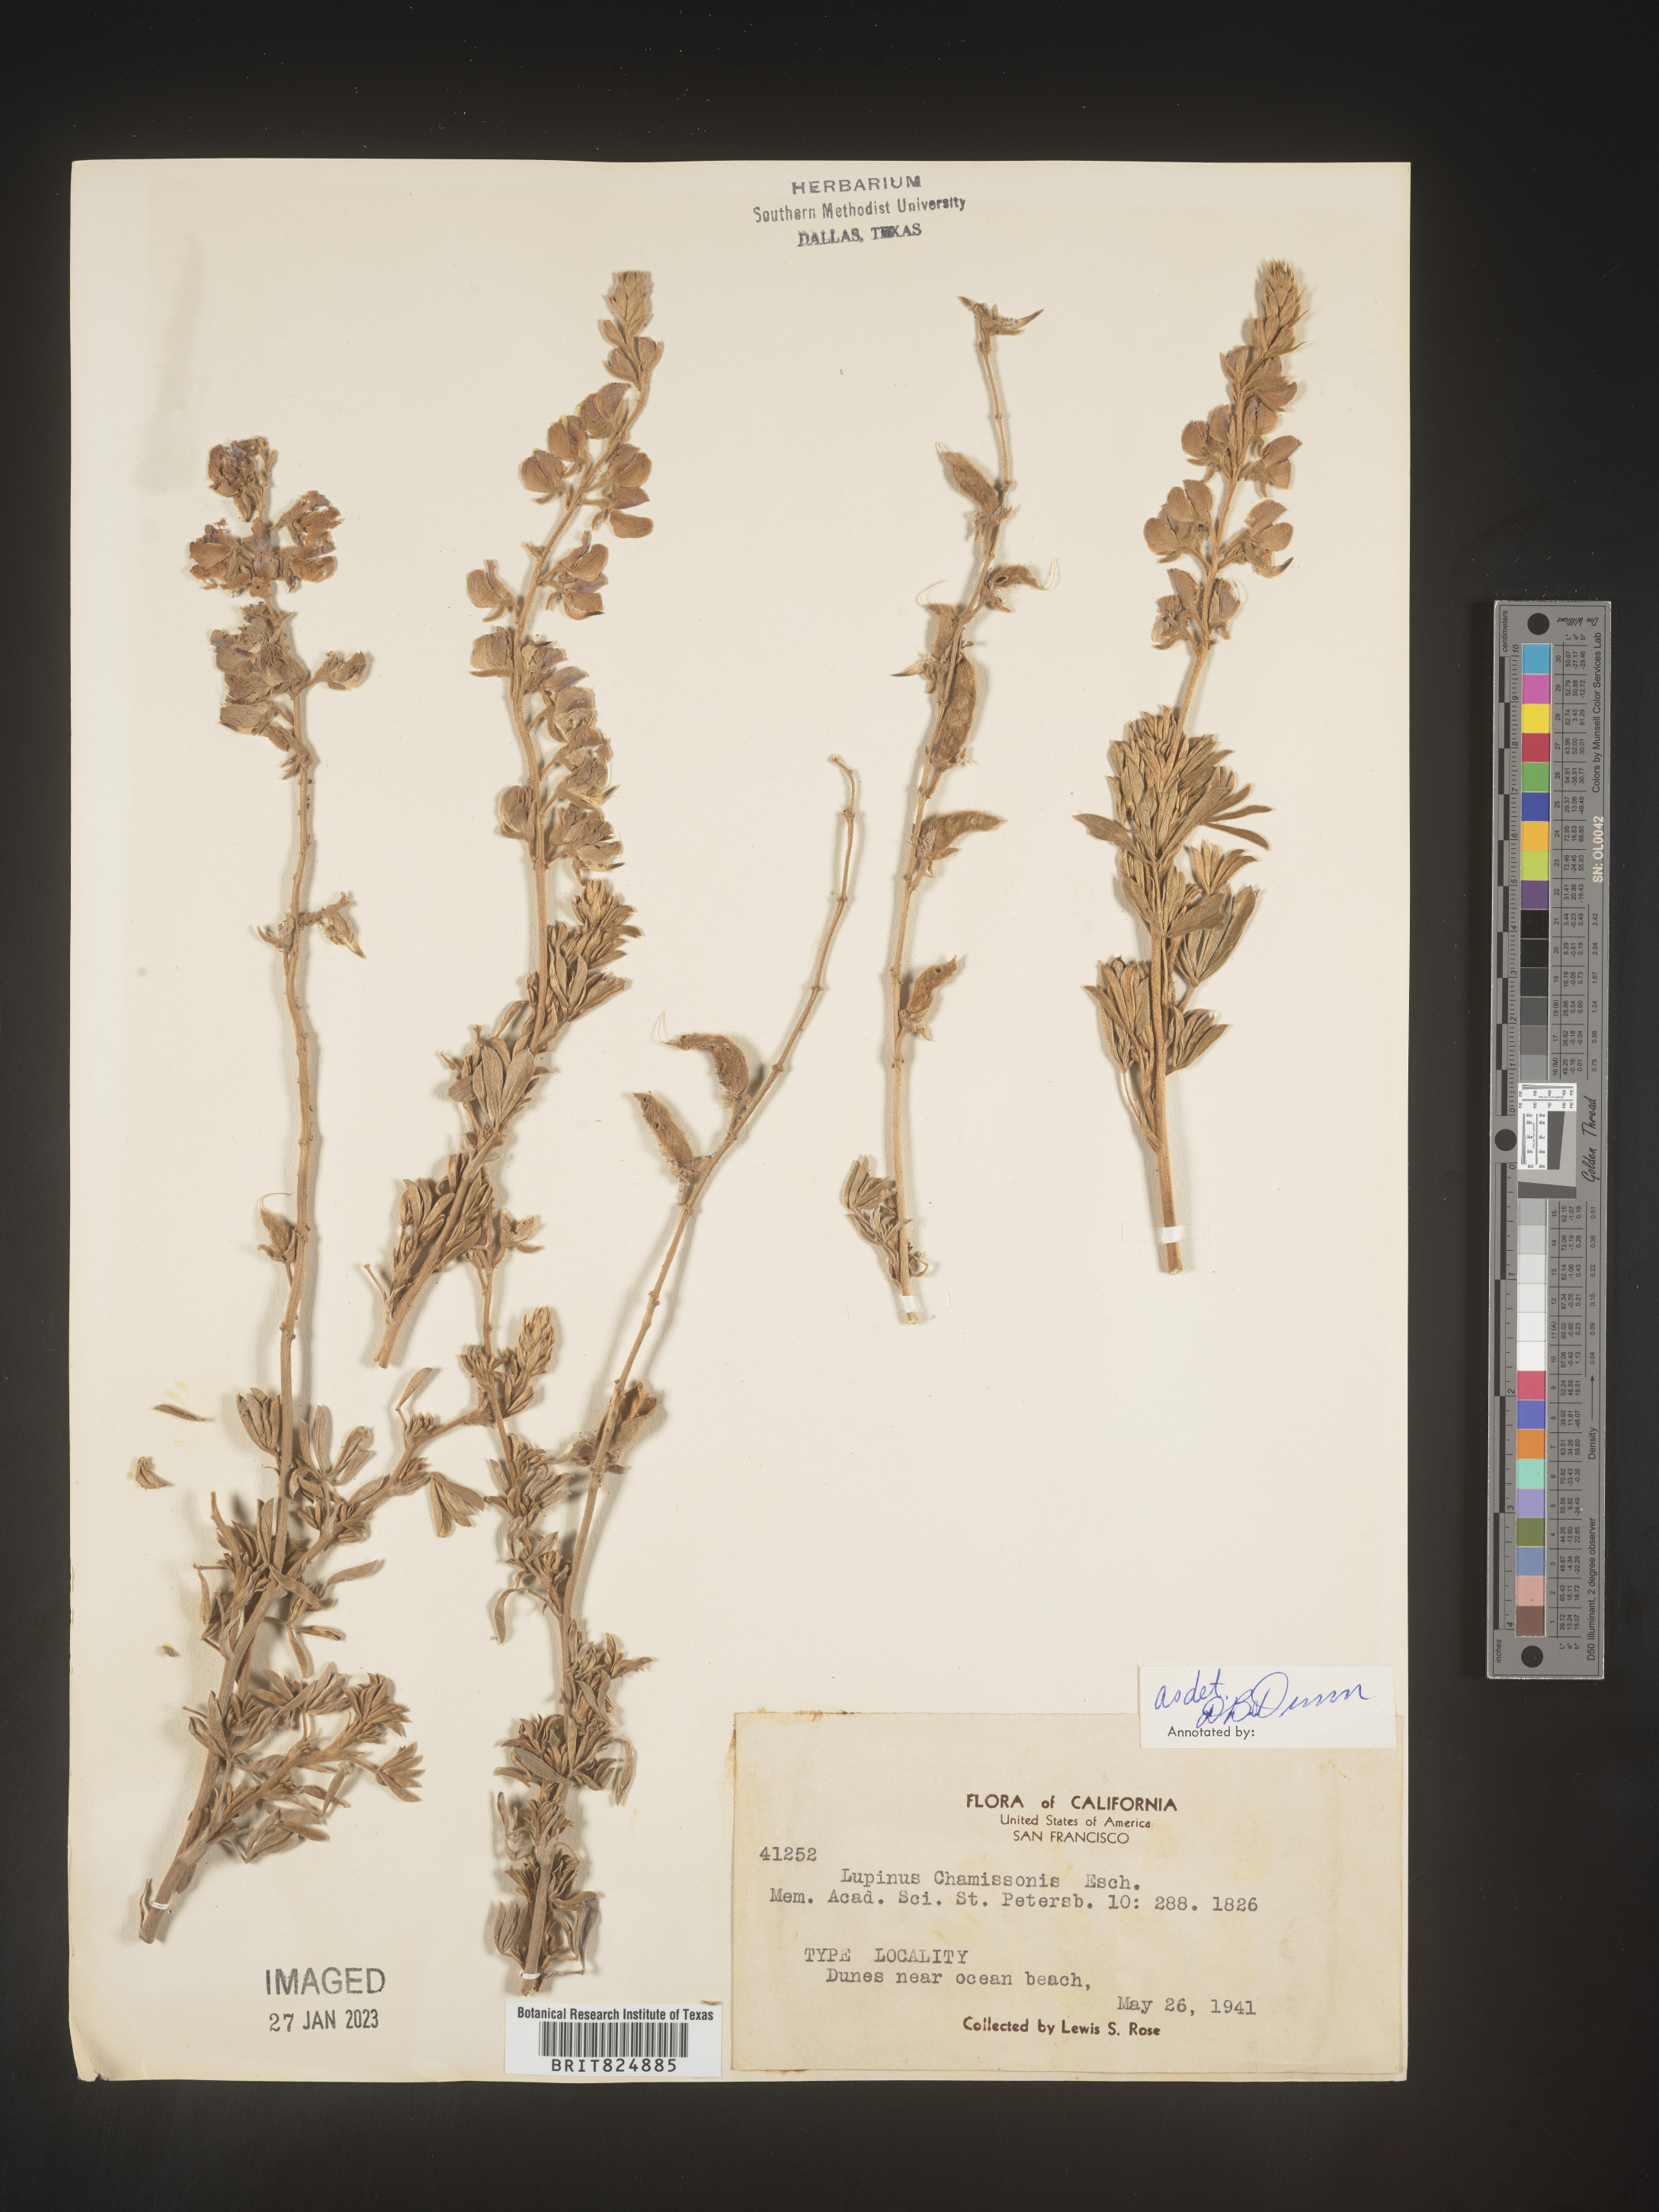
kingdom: Plantae
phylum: Tracheophyta
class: Magnoliopsida
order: Fabales
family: Fabaceae
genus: Lupinus
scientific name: Lupinus
